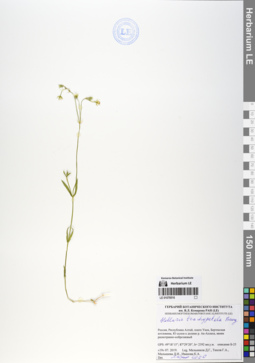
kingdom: Plantae
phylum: Tracheophyta
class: Magnoliopsida
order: Caryophyllales
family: Caryophyllaceae
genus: Stellaria
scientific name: Stellaria brachypetala
